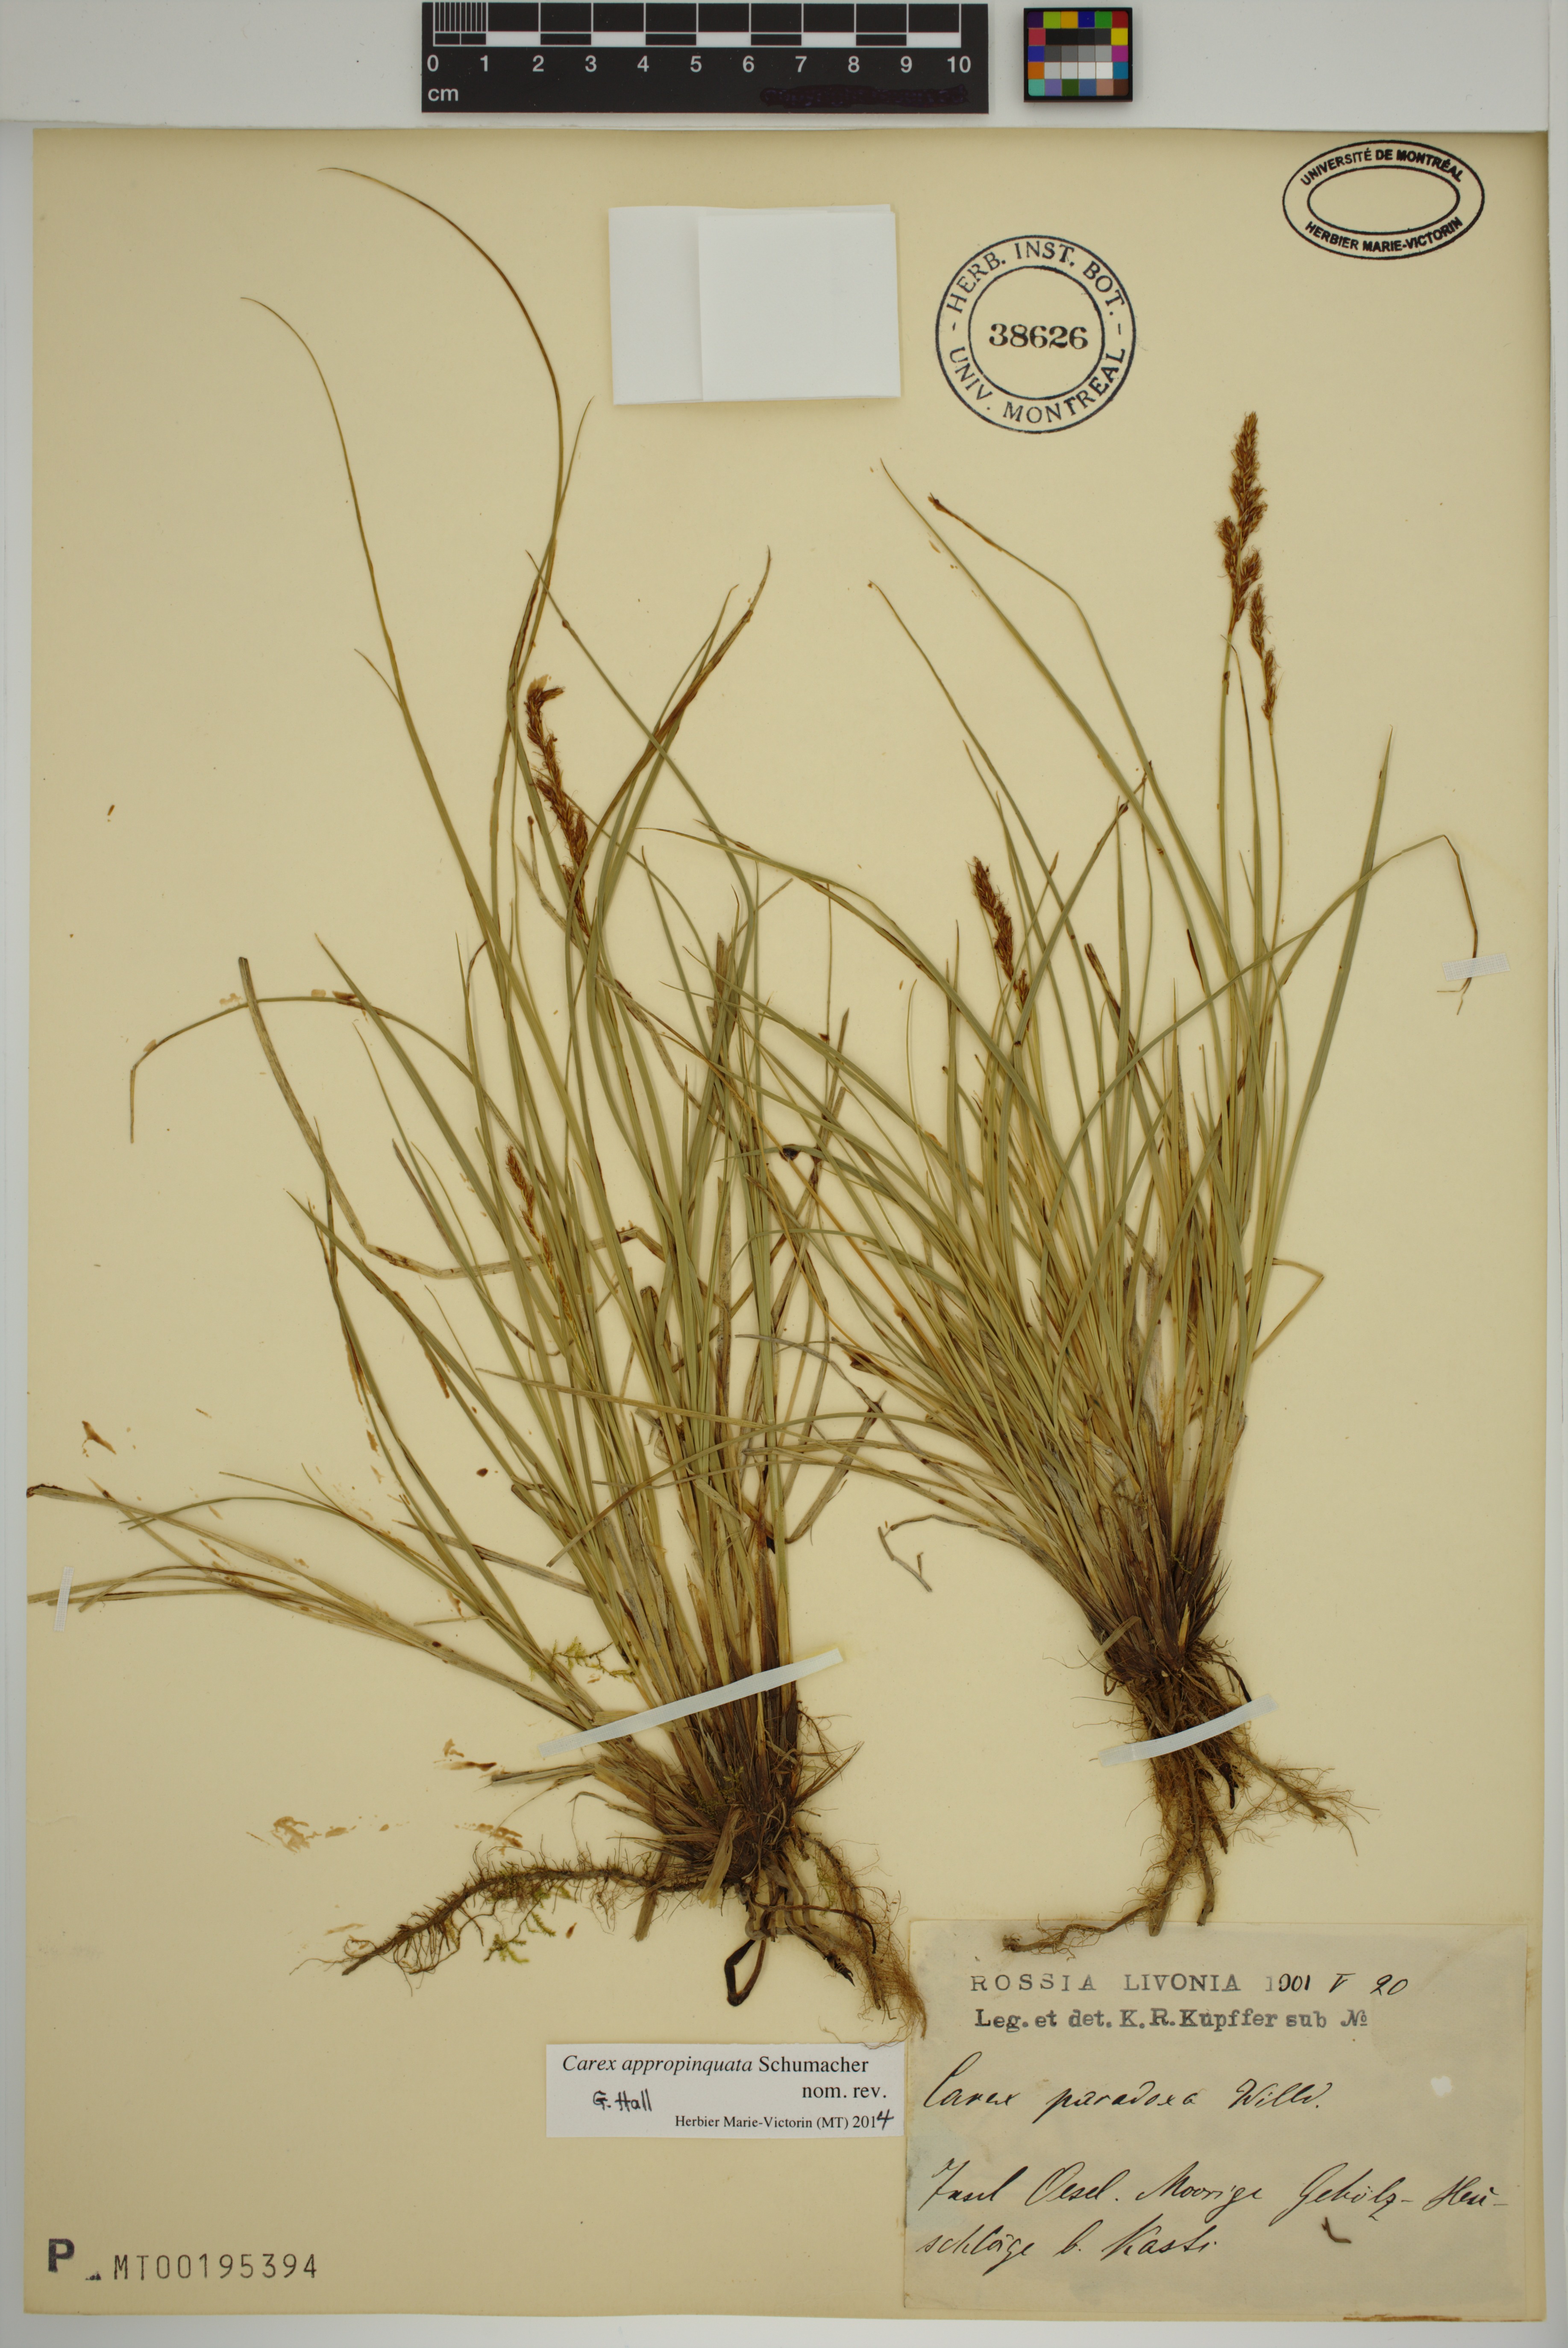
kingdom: Plantae
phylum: Tracheophyta
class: Liliopsida
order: Poales
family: Cyperaceae
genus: Carex
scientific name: Carex appropinquata
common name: Fibrous tussock-sedge
